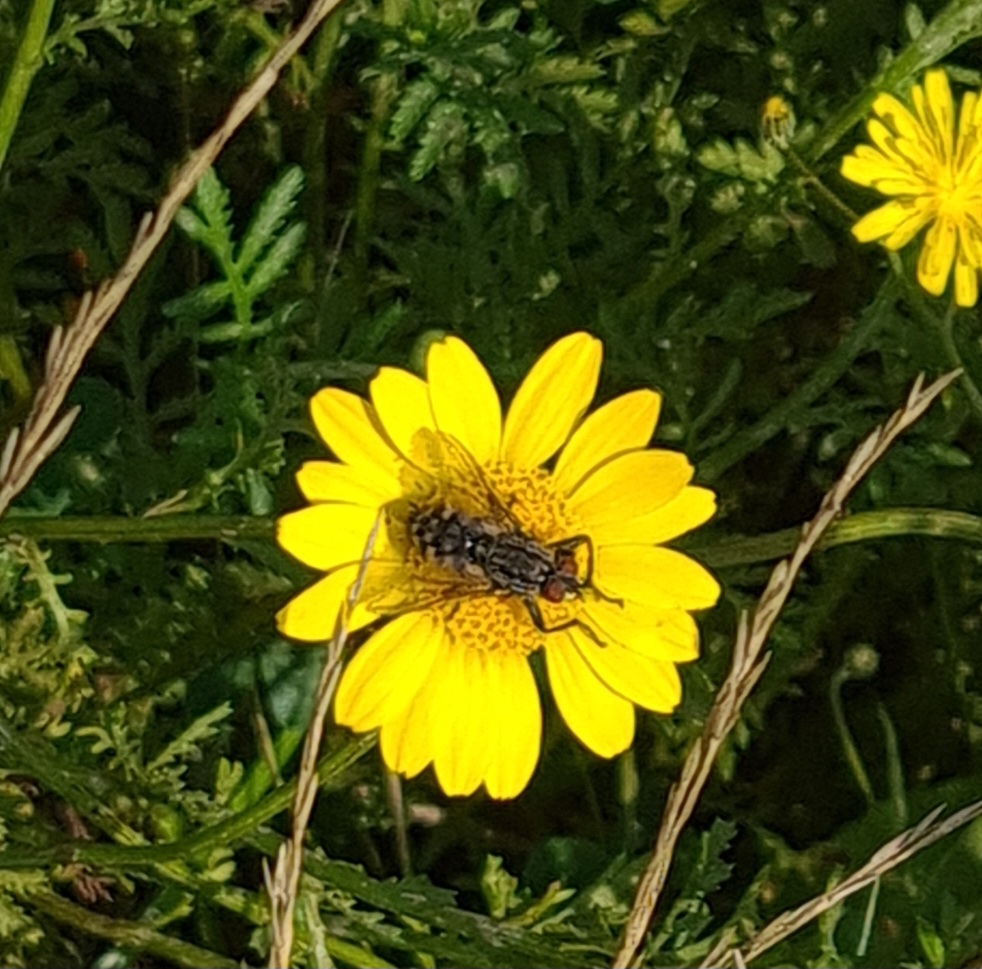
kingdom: Animalia
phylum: Arthropoda
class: Insecta
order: Diptera
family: Sarcophagidae
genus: Sarcophaga
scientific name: Sarcophaga
